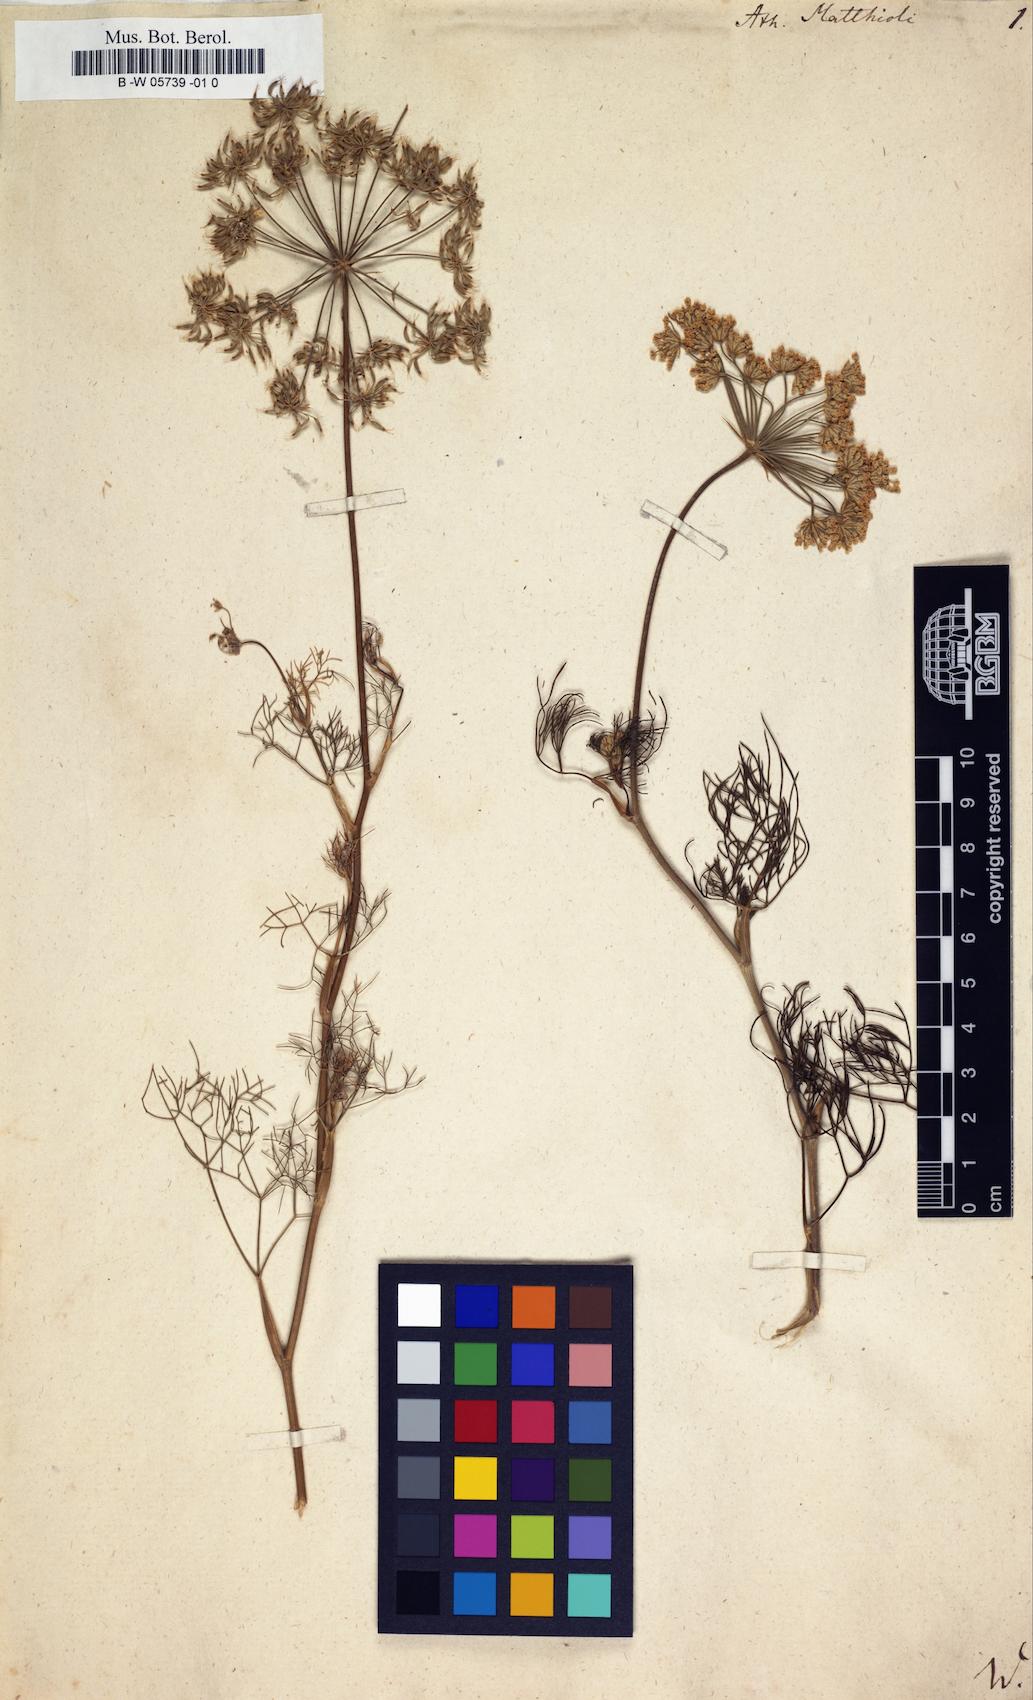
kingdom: Plantae
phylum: Tracheophyta
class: Magnoliopsida
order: Apiales
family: Apiaceae
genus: Athamanta
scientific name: Athamanta
